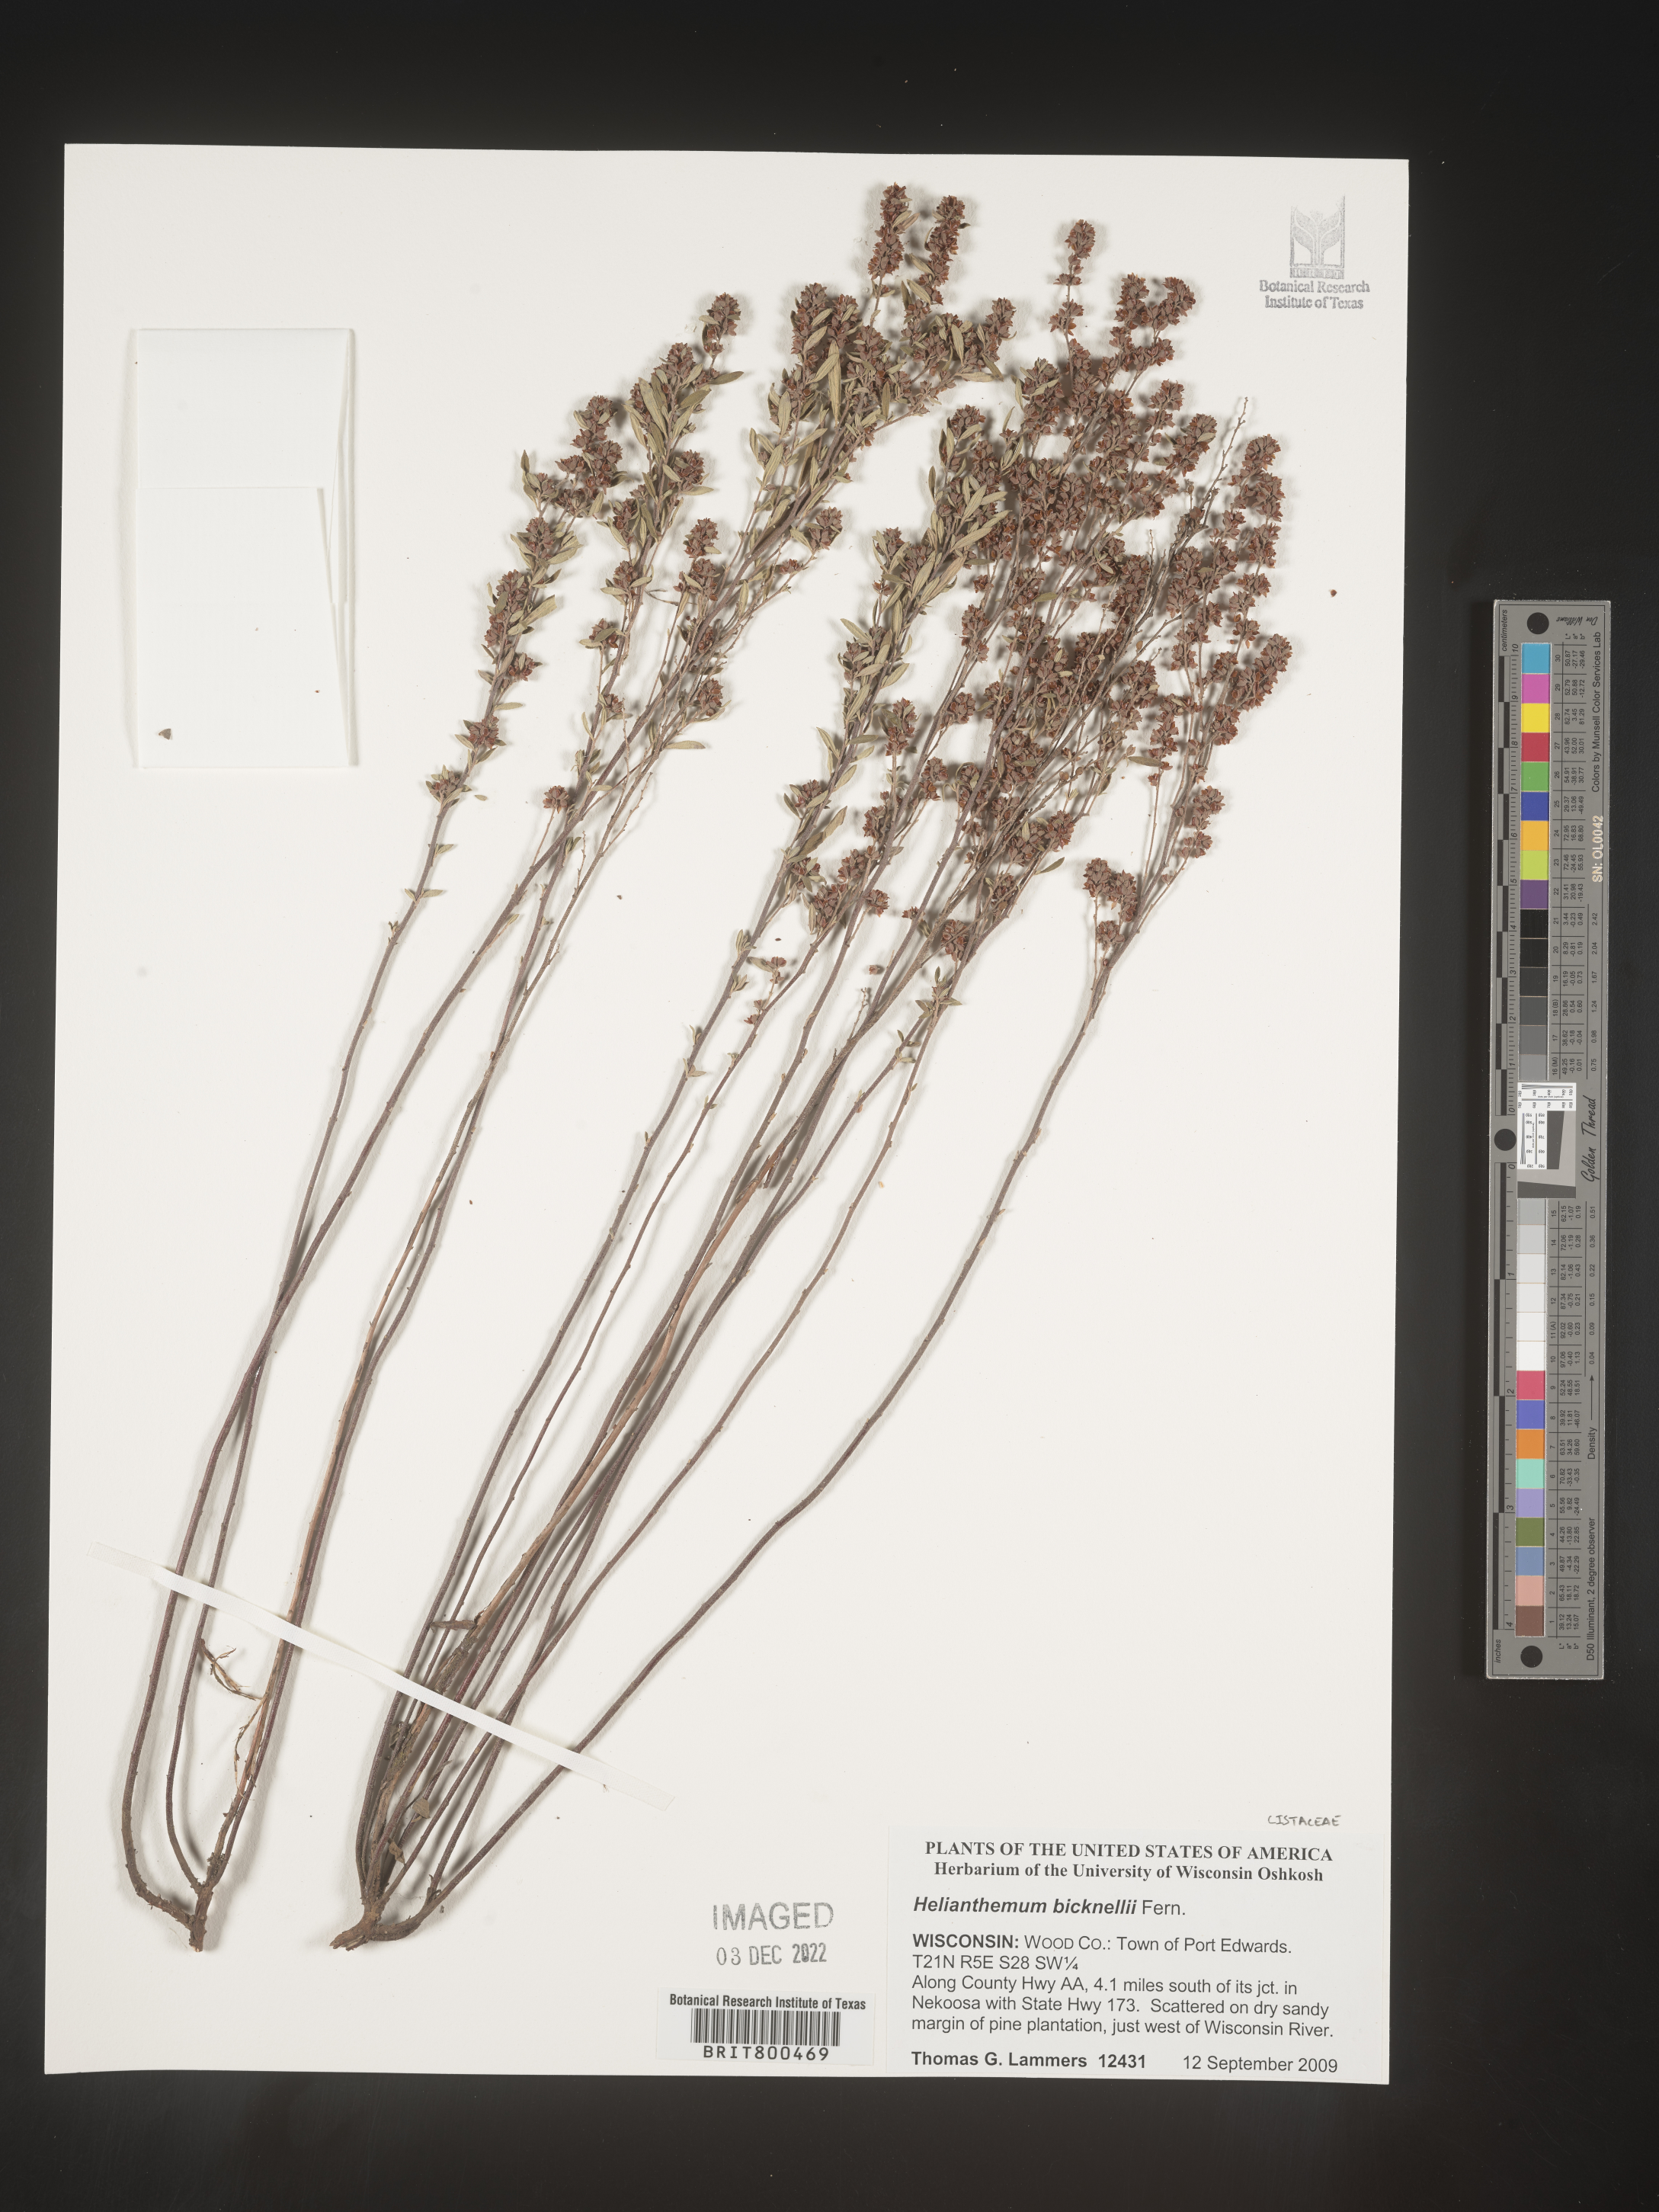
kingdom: Plantae
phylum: Tracheophyta
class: Magnoliopsida
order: Malvales
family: Cistaceae
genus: Helianthemum
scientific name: Helianthemum
